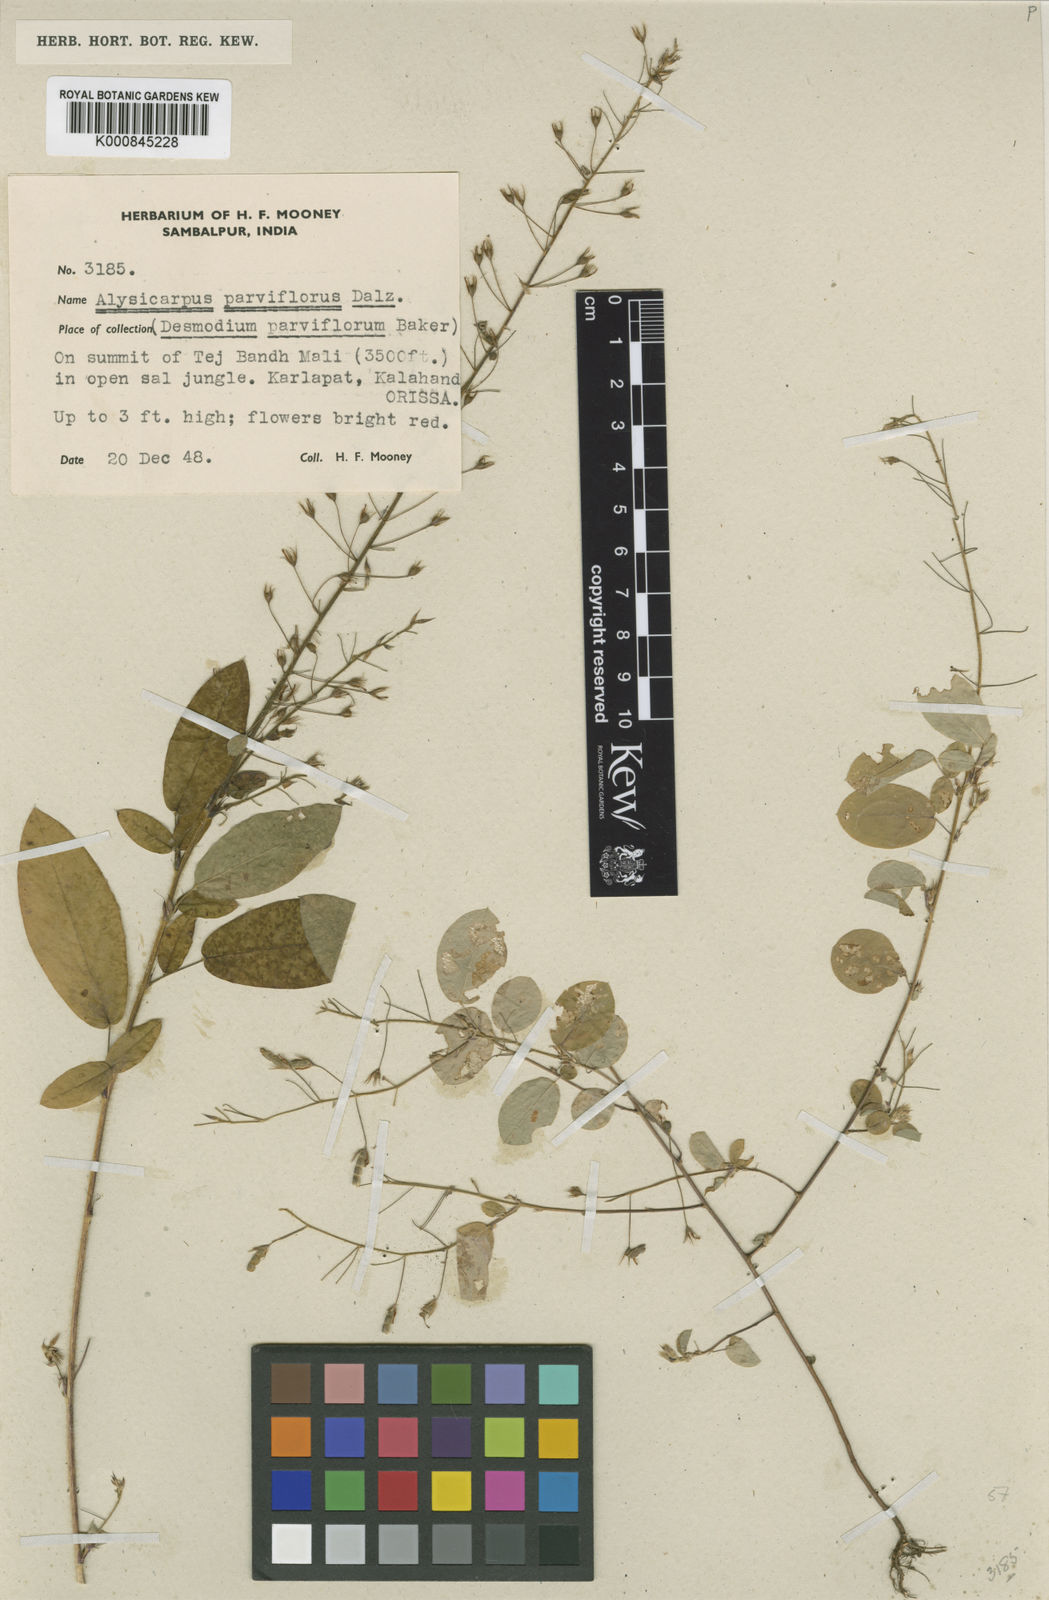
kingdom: Plantae
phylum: Tracheophyta
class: Magnoliopsida
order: Fabales
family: Fabaceae
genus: Alysicarpus
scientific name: Alysicarpus parviflorus
